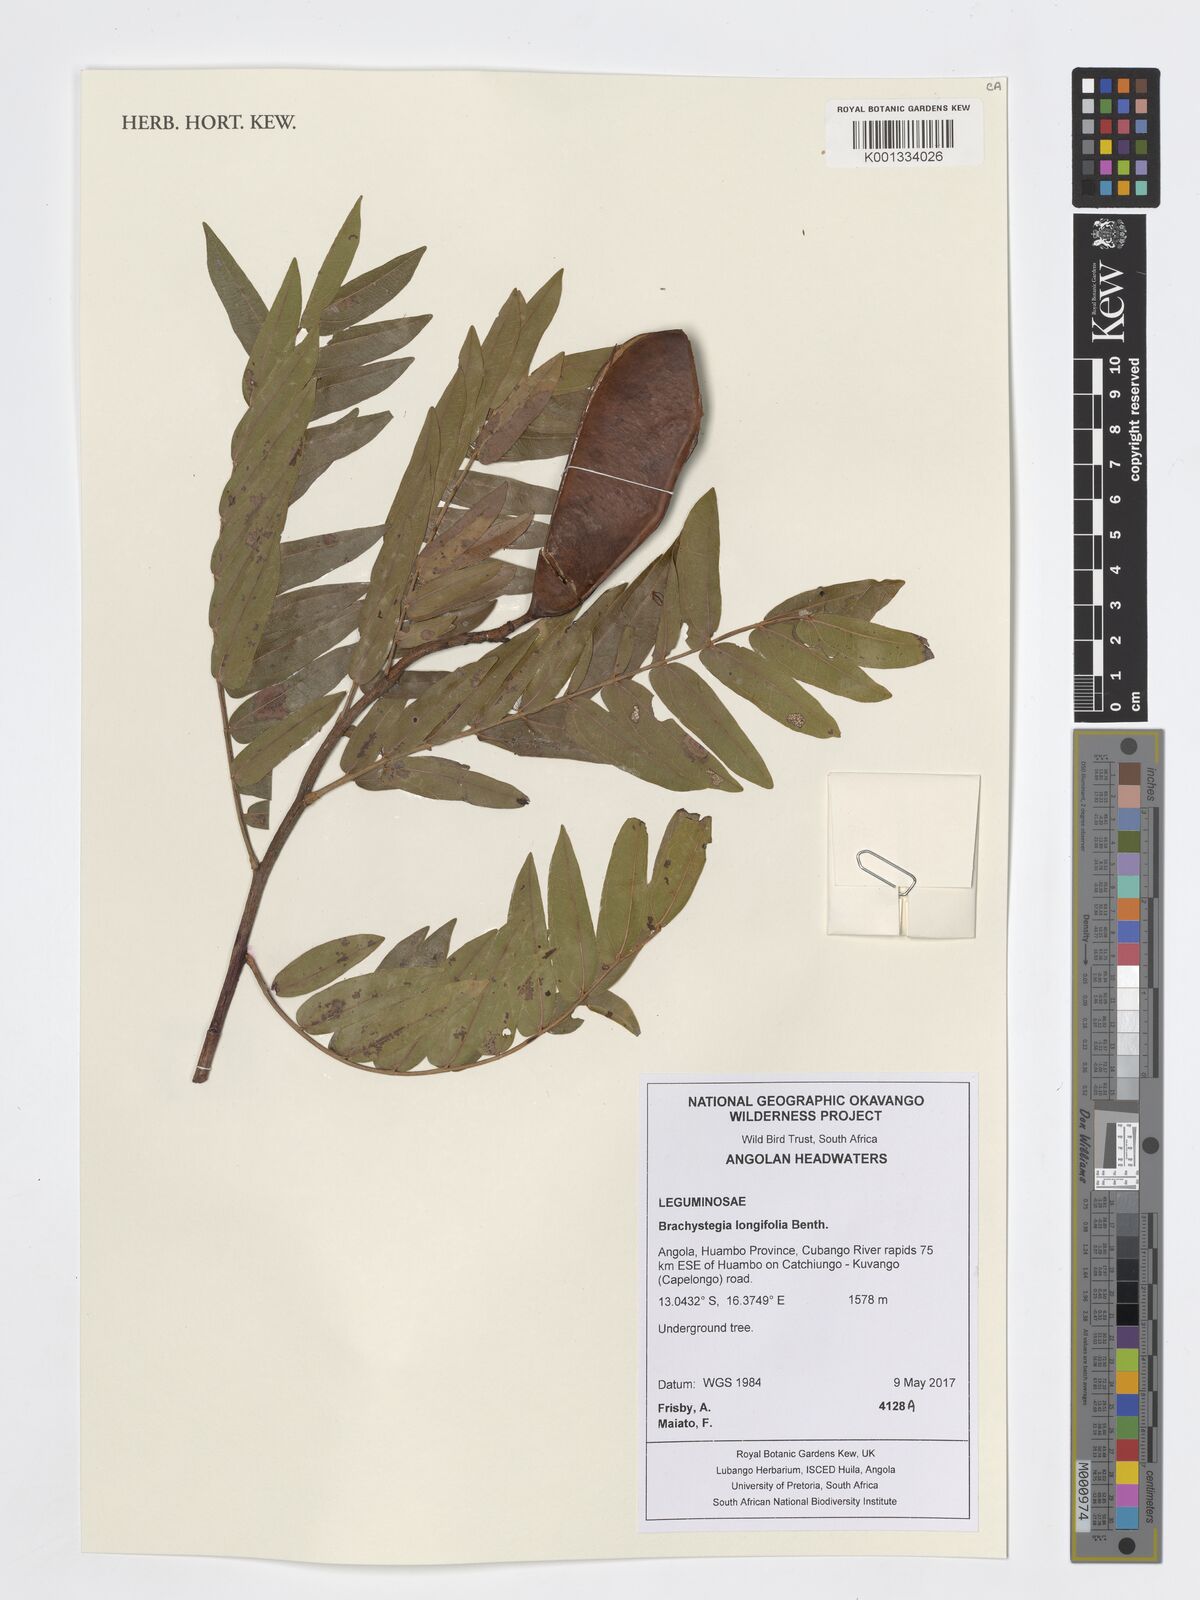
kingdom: Plantae
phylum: Tracheophyta
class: Magnoliopsida
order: Fabales
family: Fabaceae
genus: Brachystegia
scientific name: Brachystegia longifolia
